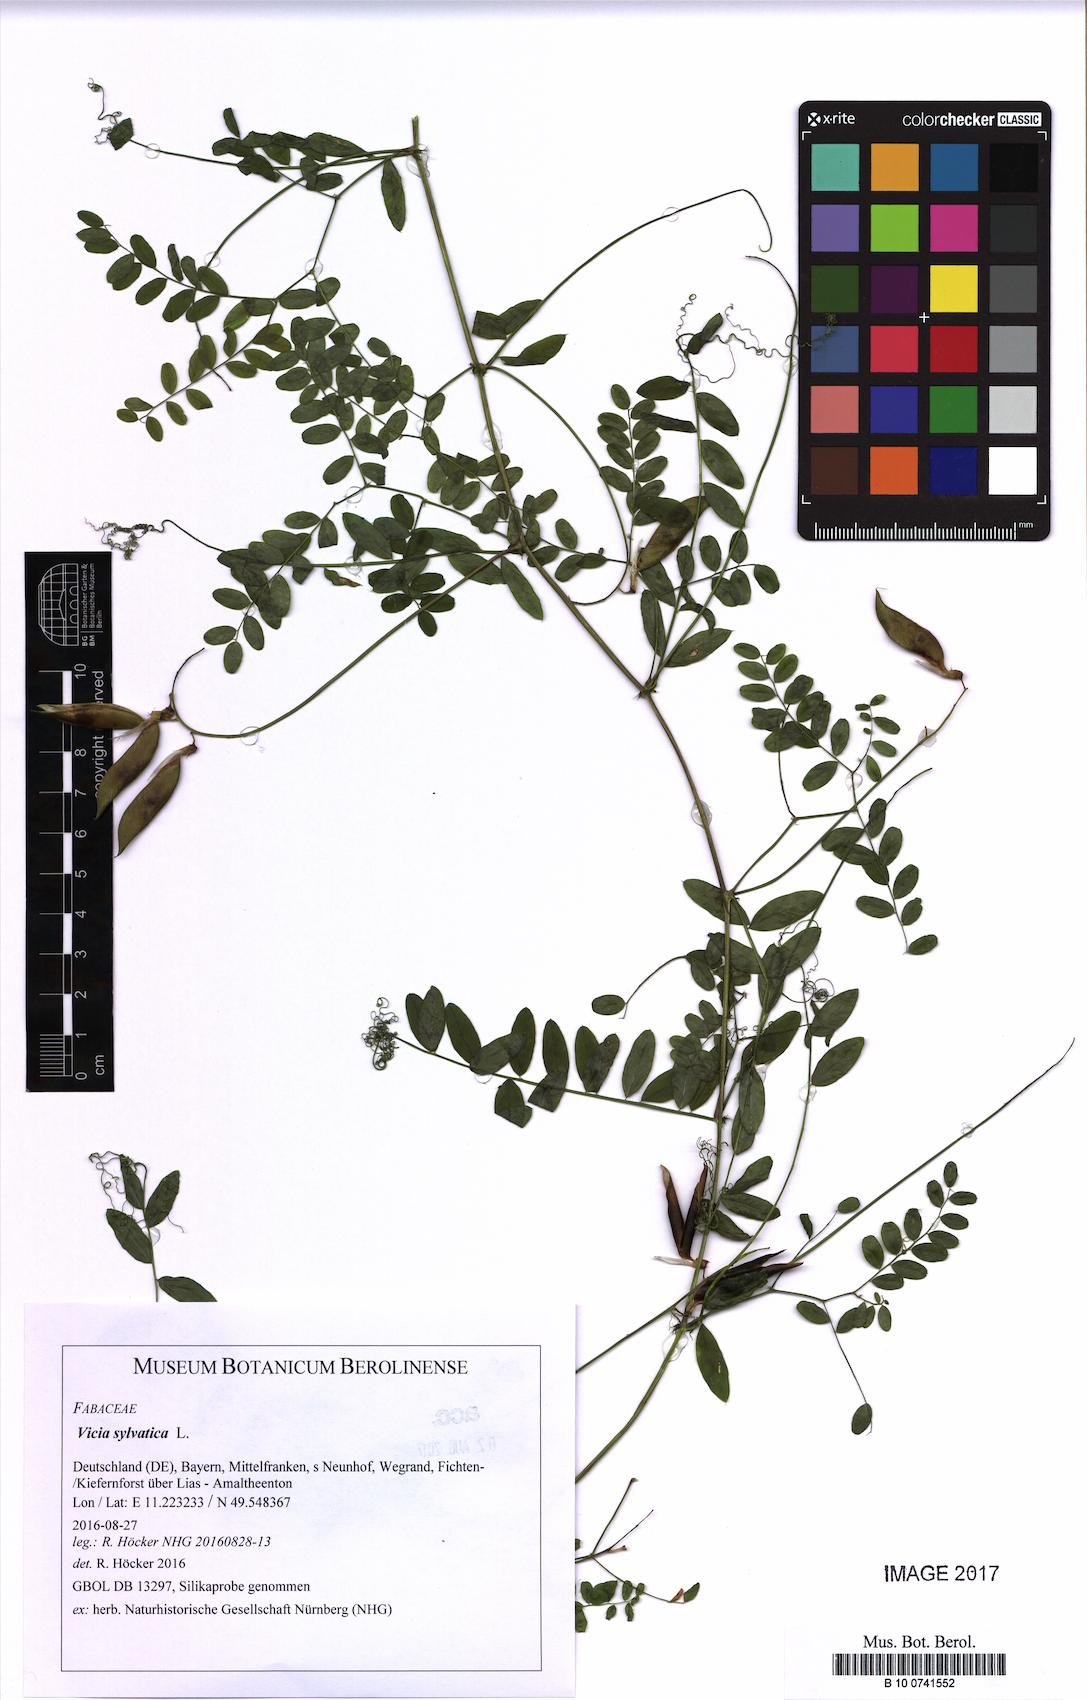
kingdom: Plantae
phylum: Tracheophyta
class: Magnoliopsida
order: Fabales
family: Fabaceae
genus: Vicia
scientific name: Vicia sylvatica
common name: Wood vetch
